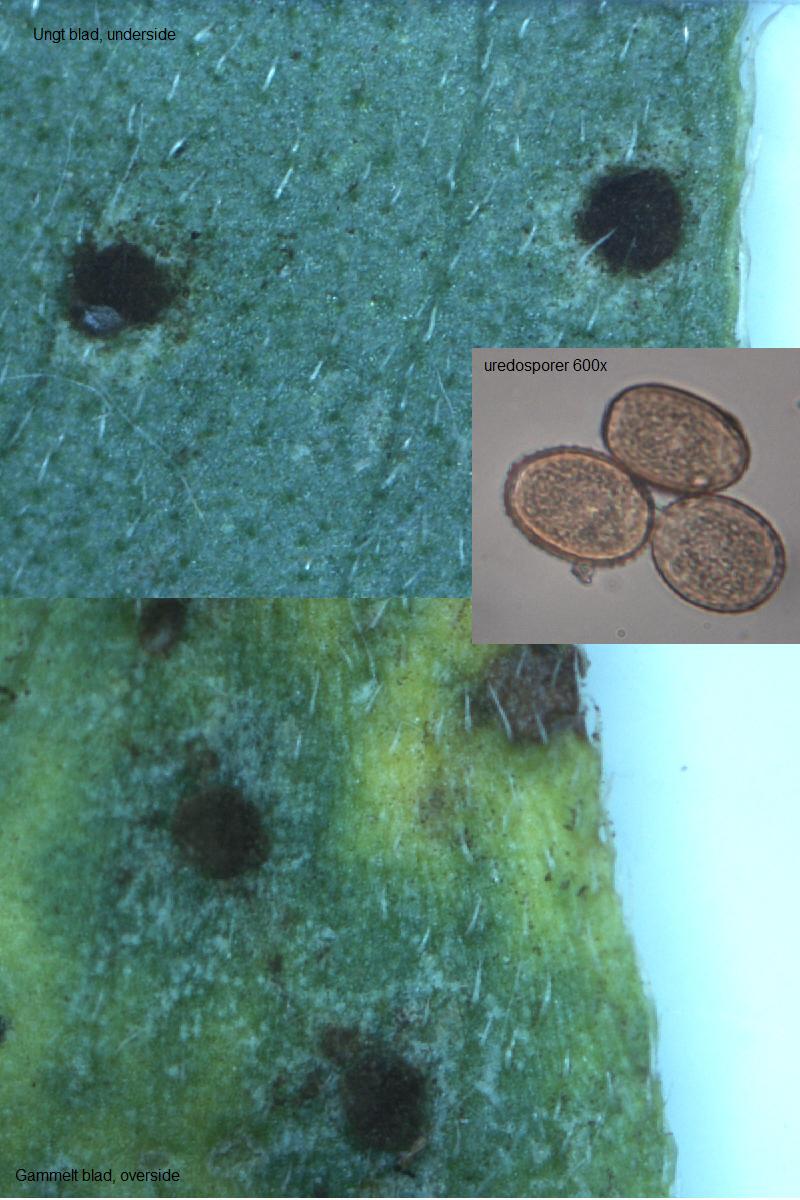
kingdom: Fungi
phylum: Basidiomycota
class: Pucciniomycetes
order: Pucciniales
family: Pucciniaceae
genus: Puccinia
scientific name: Puccinia polygoni-amphibii
